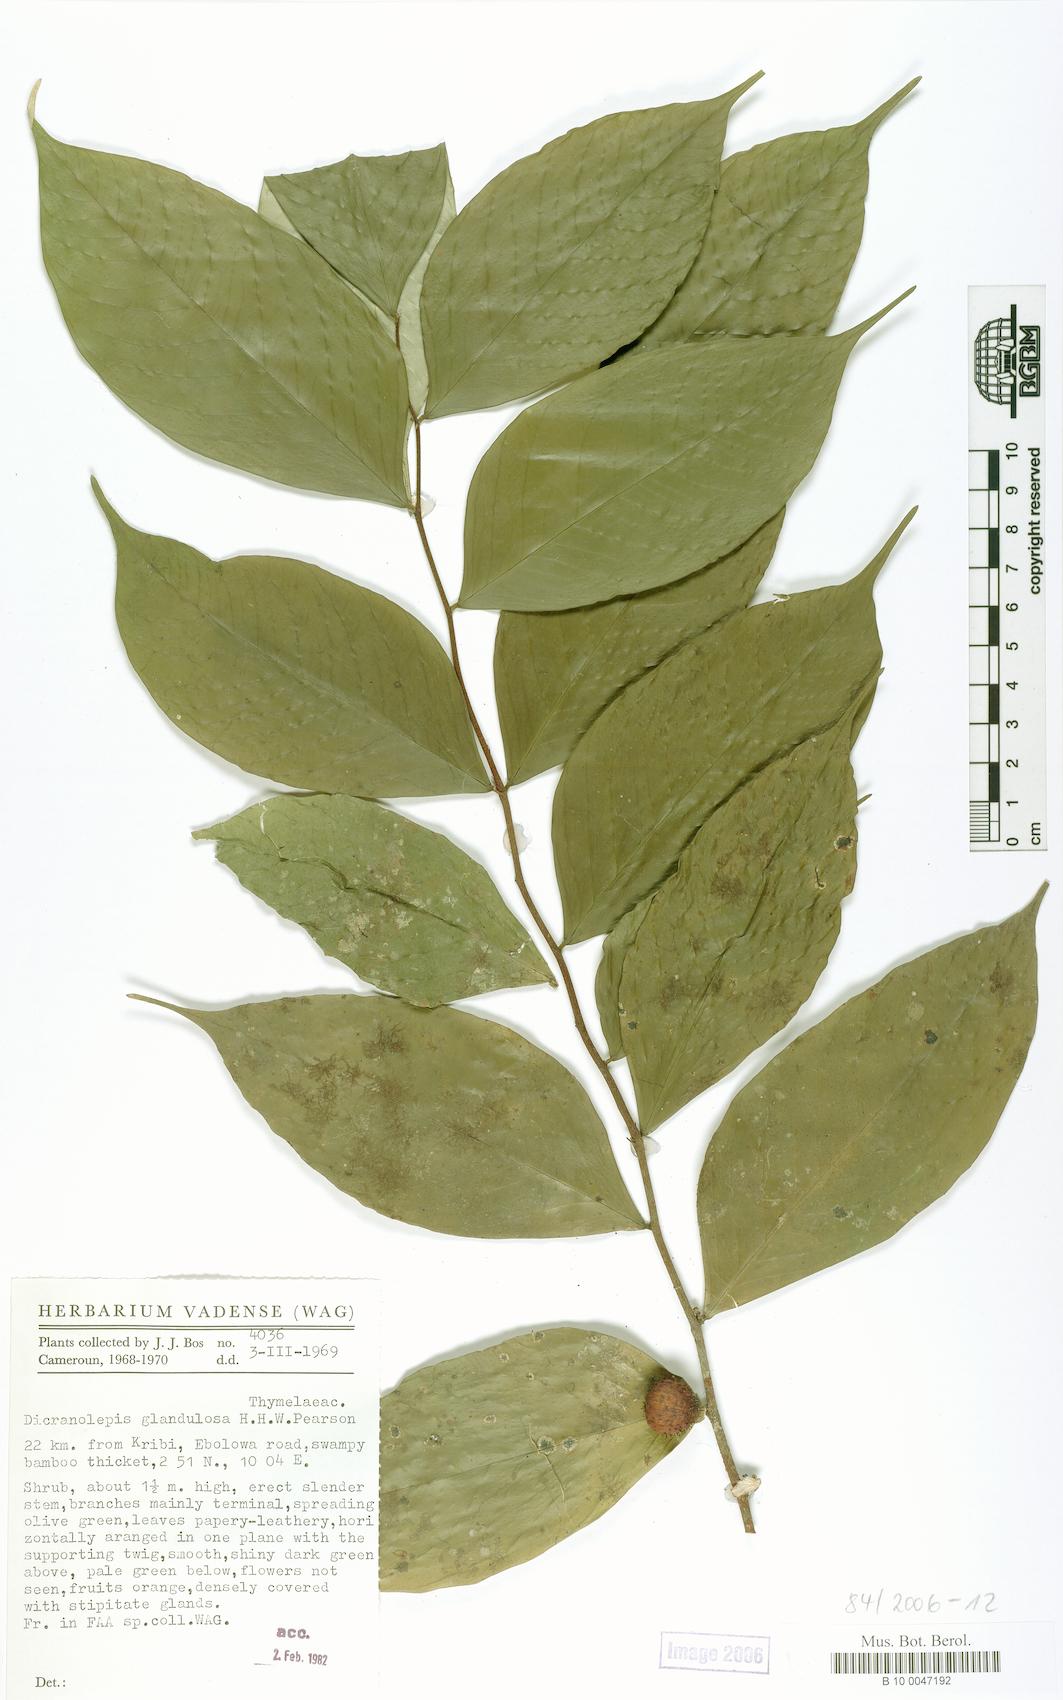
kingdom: Plantae
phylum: Tracheophyta
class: Magnoliopsida
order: Malvales
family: Thymelaeaceae
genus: Dicranolepis
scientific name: Dicranolepis glandulosa
